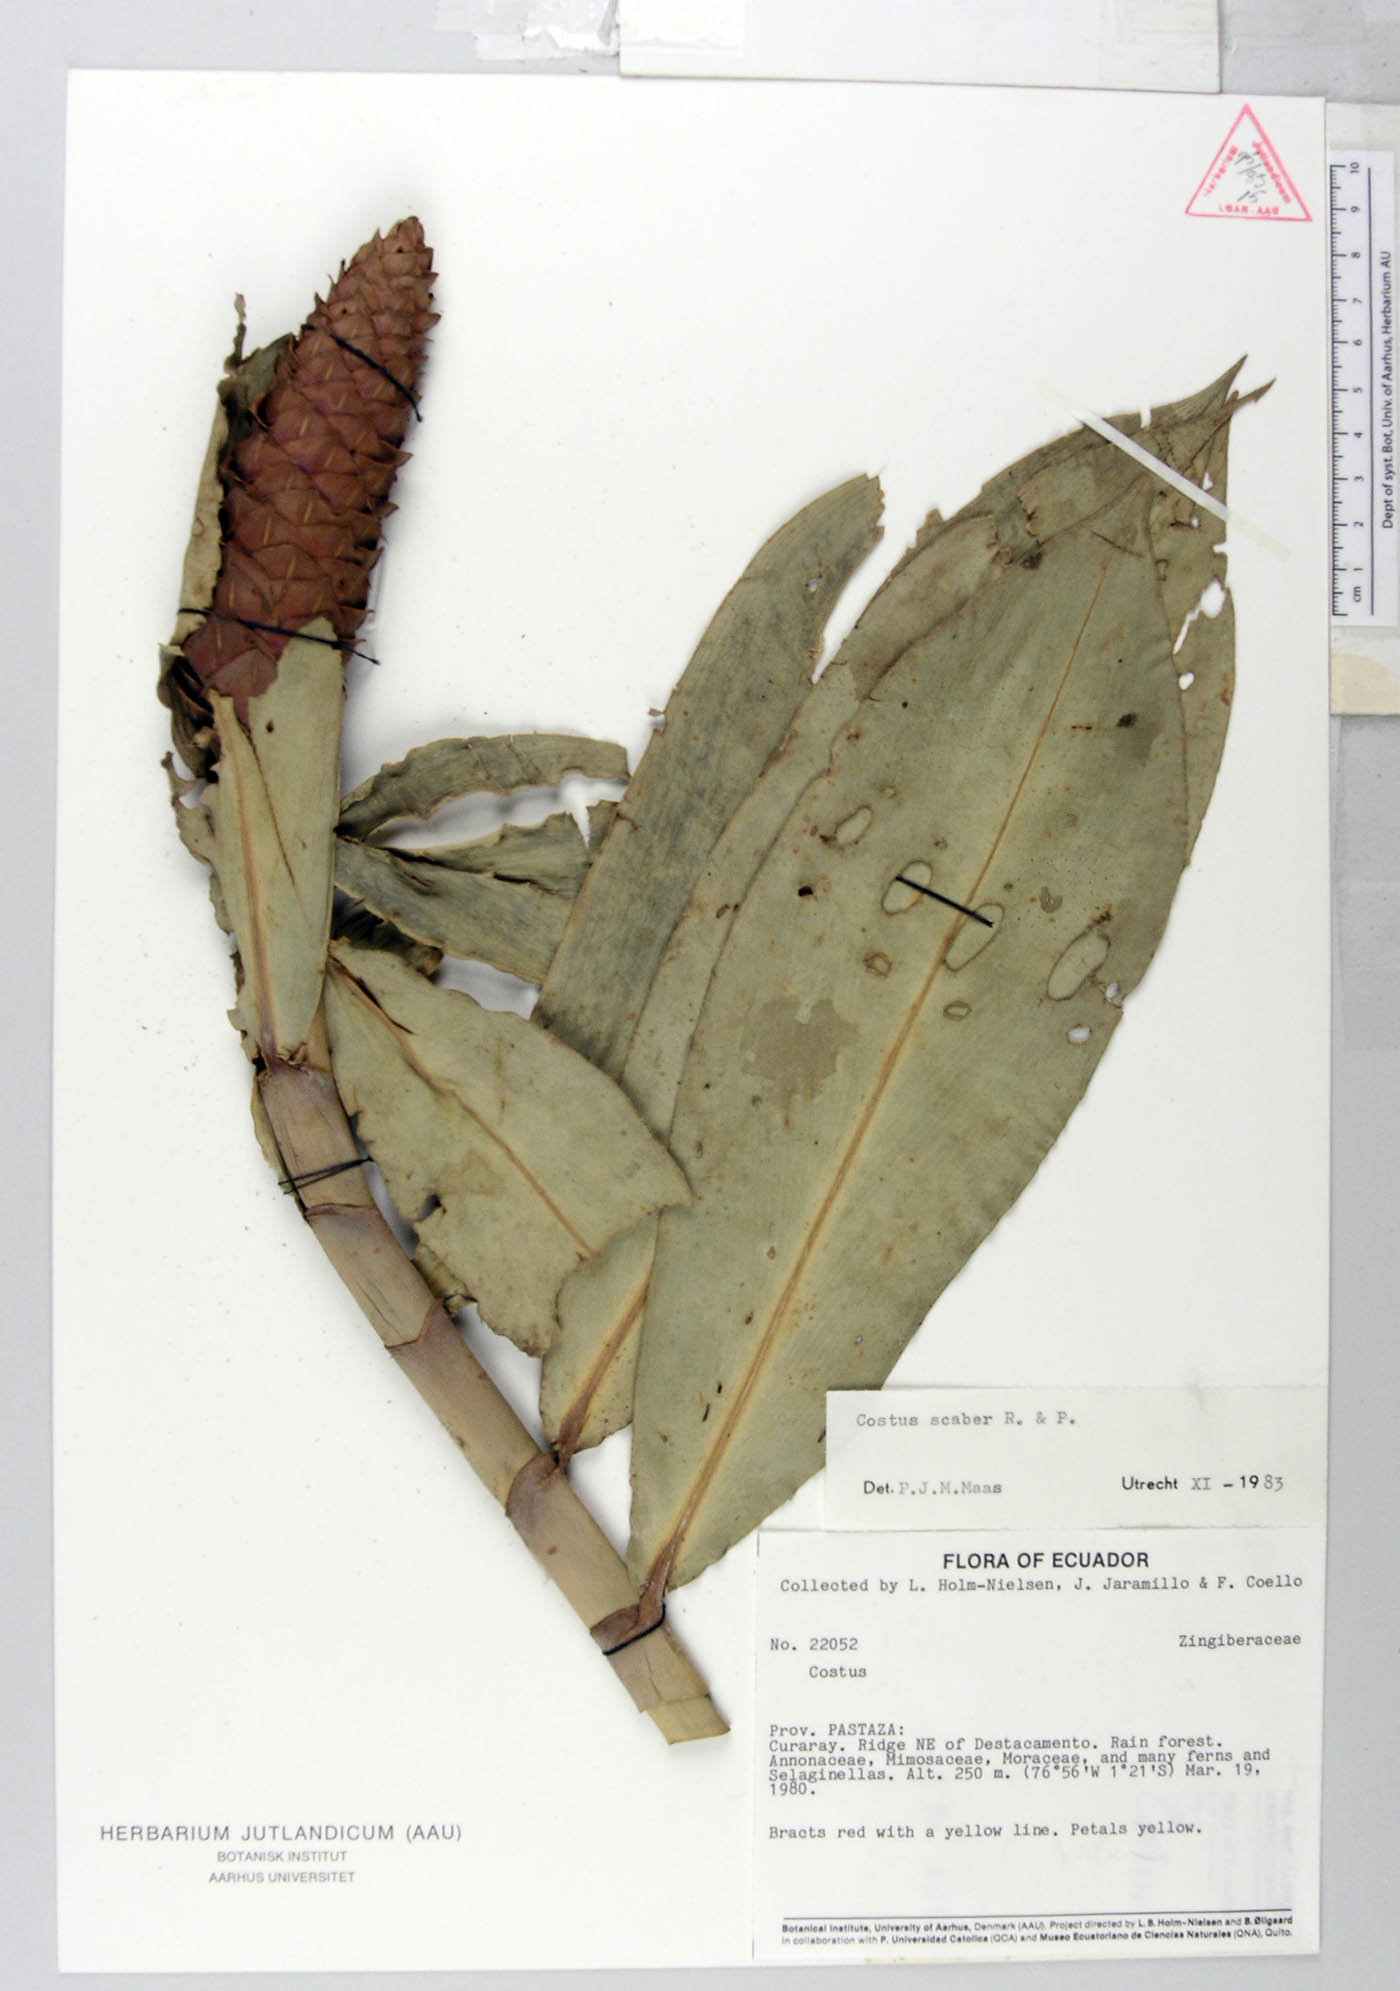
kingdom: Plantae
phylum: Tracheophyta
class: Liliopsida
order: Zingiberales
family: Costaceae
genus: Costus
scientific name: Costus scaber
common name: Spiral head ginger
